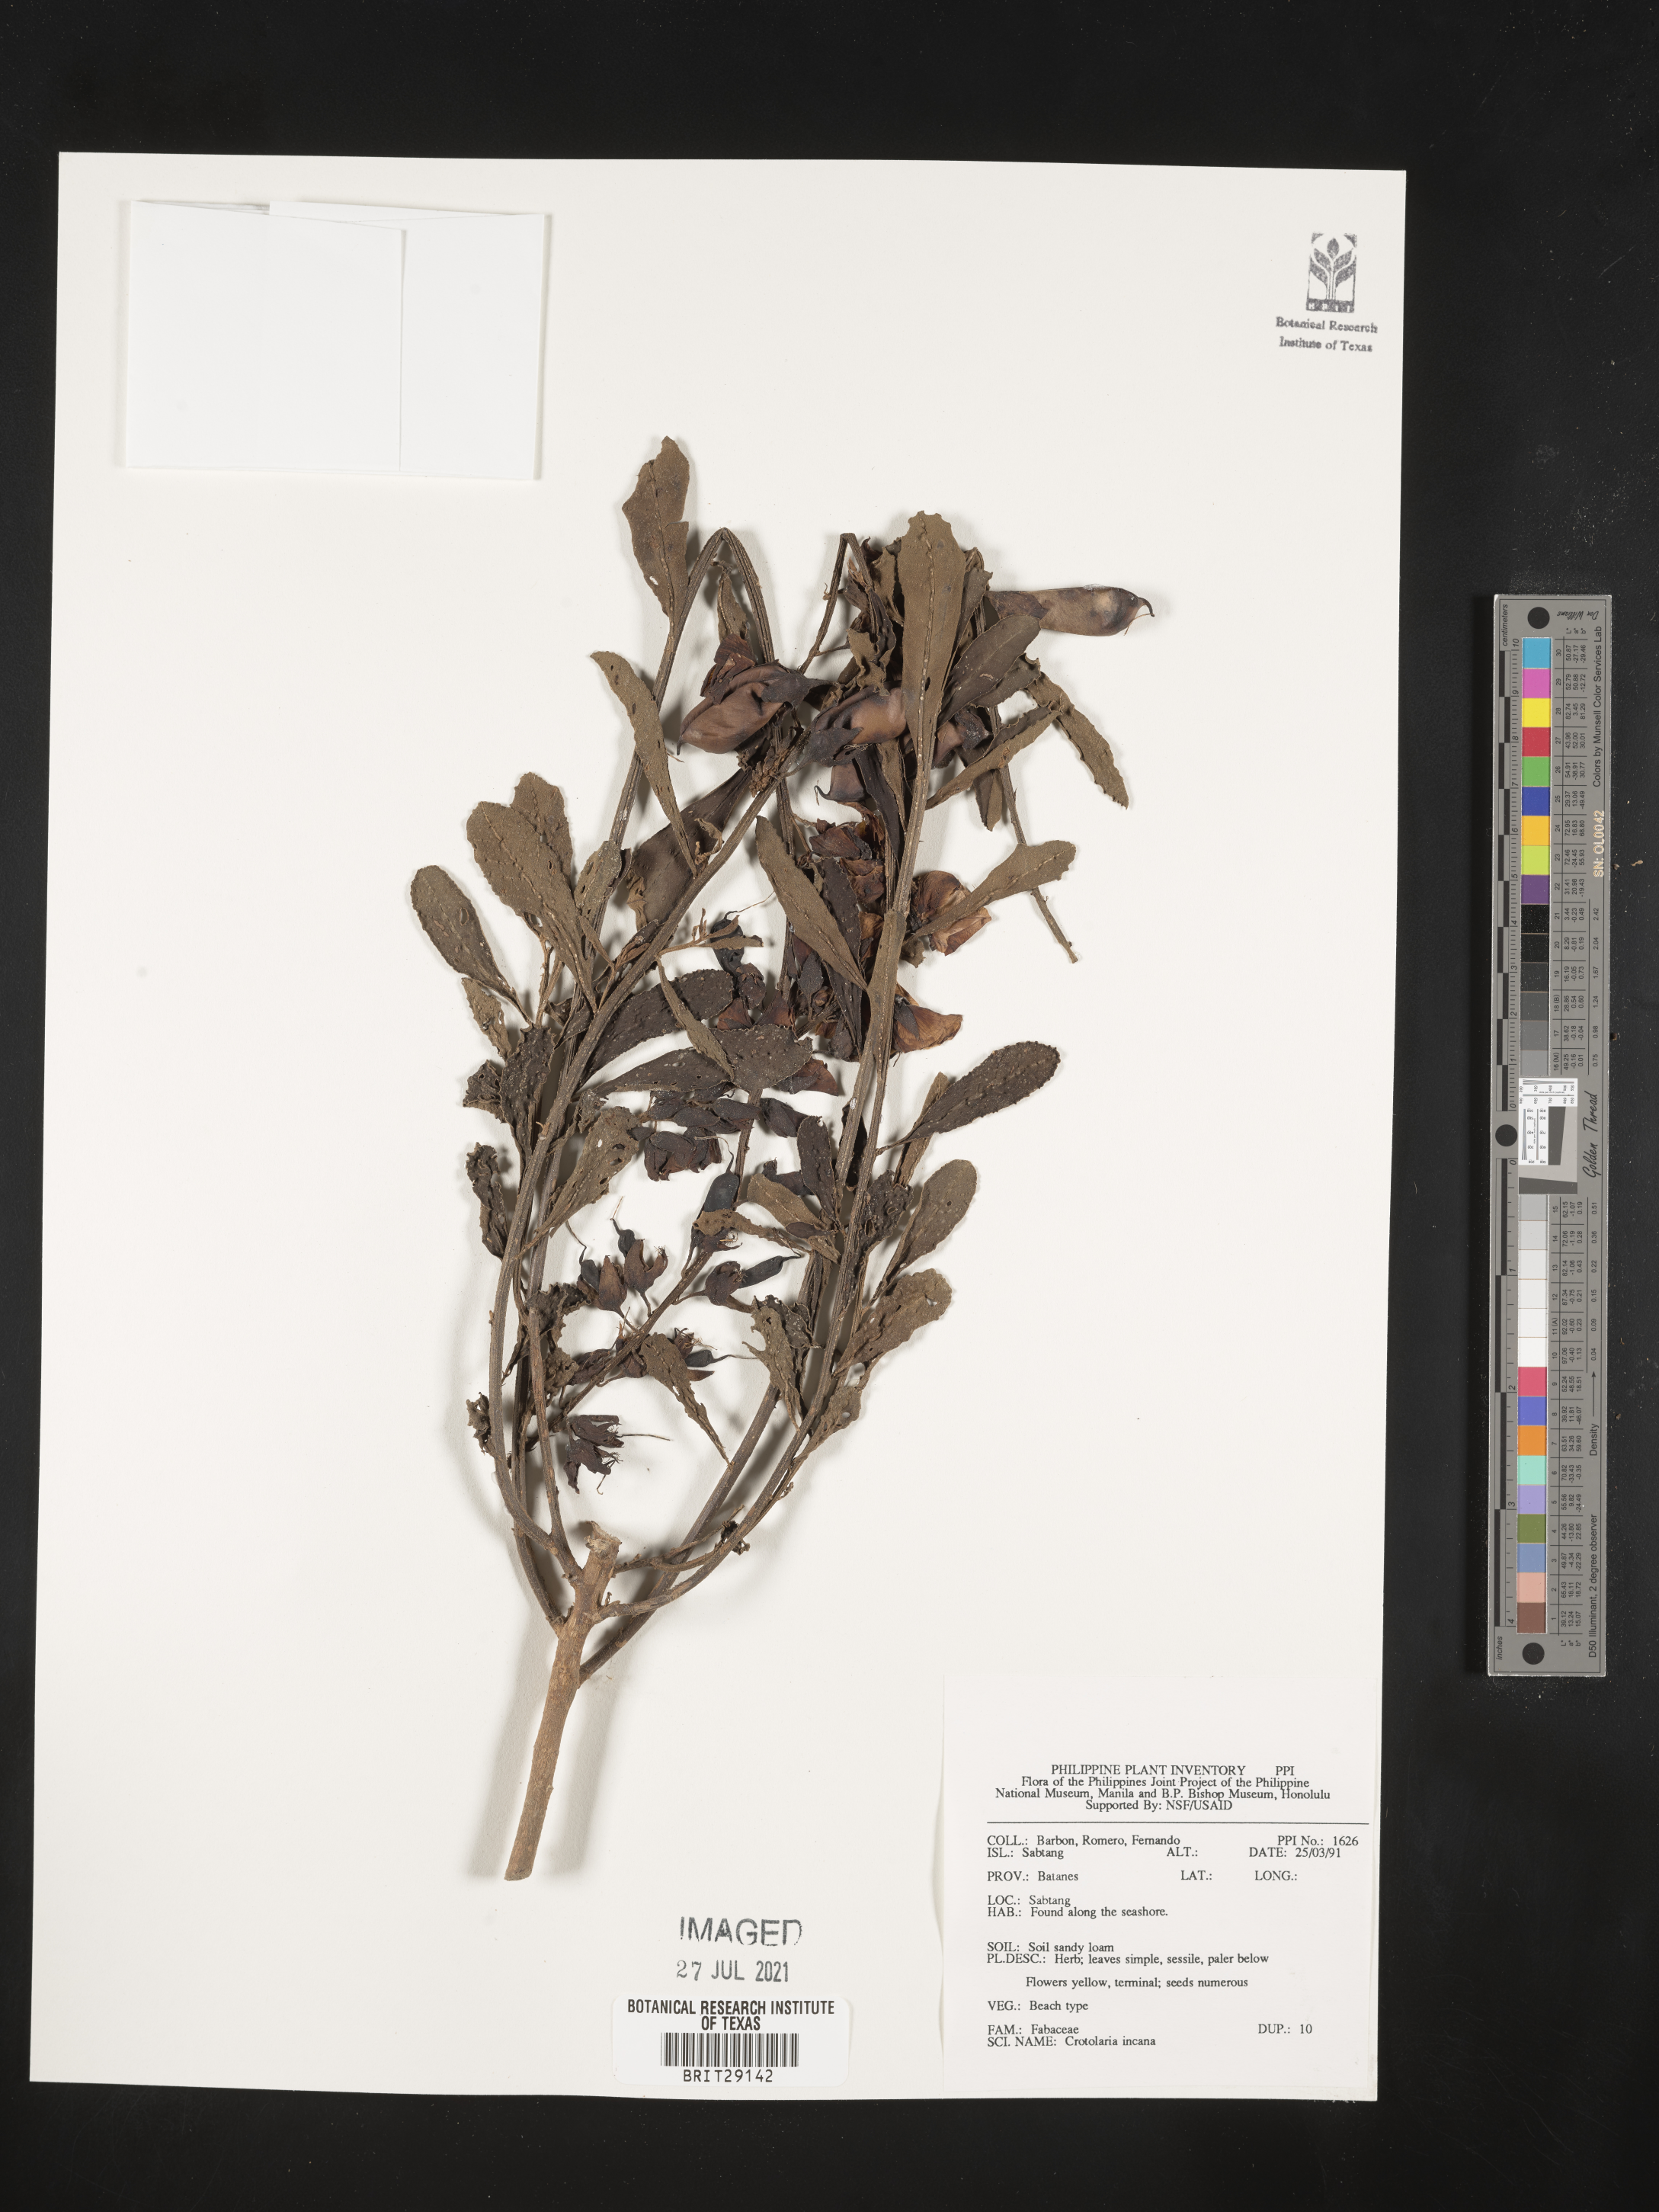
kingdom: Plantae
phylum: Tracheophyta
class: Magnoliopsida
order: Fabales
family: Fabaceae
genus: Crotalaria
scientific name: Crotalaria incana
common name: Shakeshake
